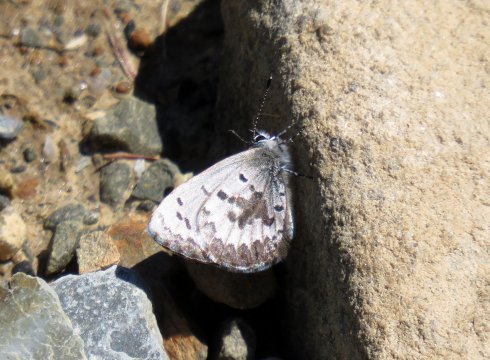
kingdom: Animalia
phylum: Arthropoda
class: Insecta
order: Lepidoptera
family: Lycaenidae
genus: Celastrina
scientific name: Celastrina lucia
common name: Northern Spring Azure
